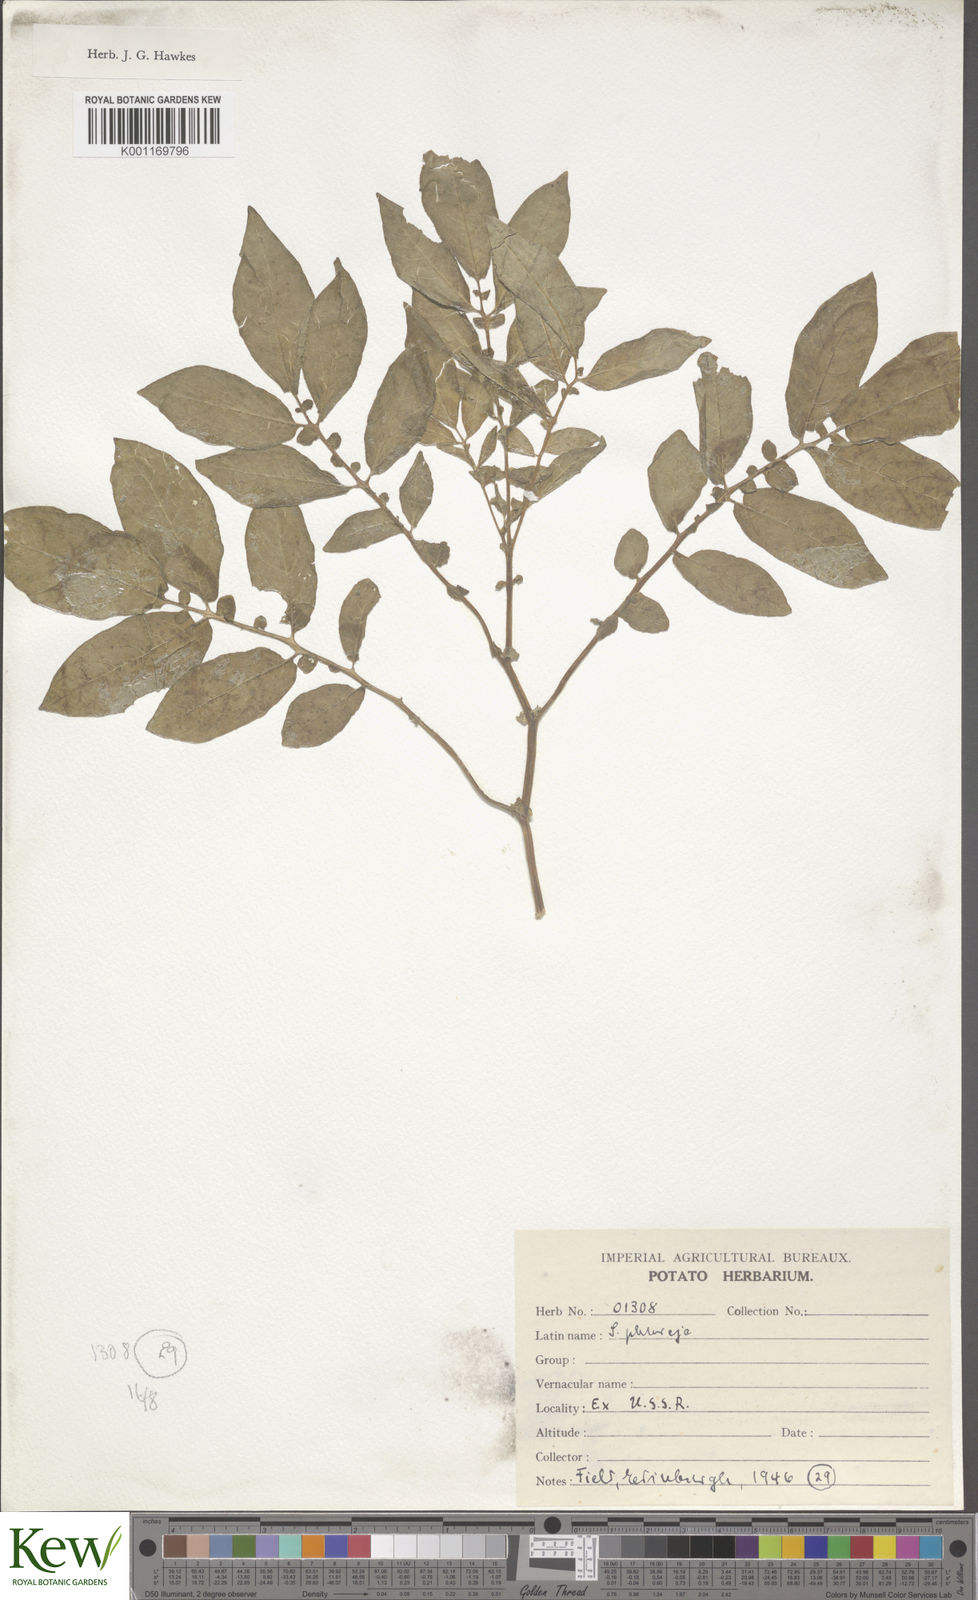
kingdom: Plantae
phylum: Tracheophyta
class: Magnoliopsida
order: Solanales
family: Solanaceae
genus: Solanum
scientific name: Solanum tuberosum
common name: Potato
